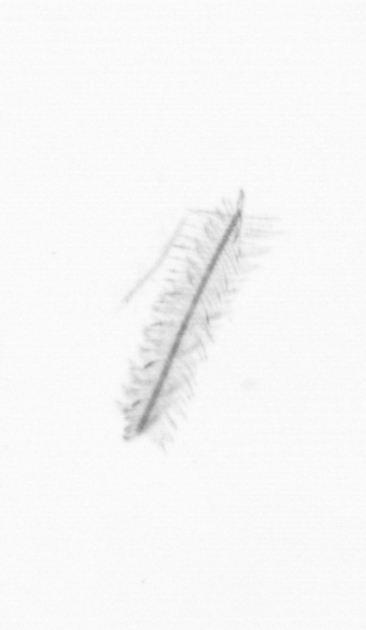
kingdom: Chromista
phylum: Ochrophyta
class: Bacillariophyceae
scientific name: Bacillariophyceae
